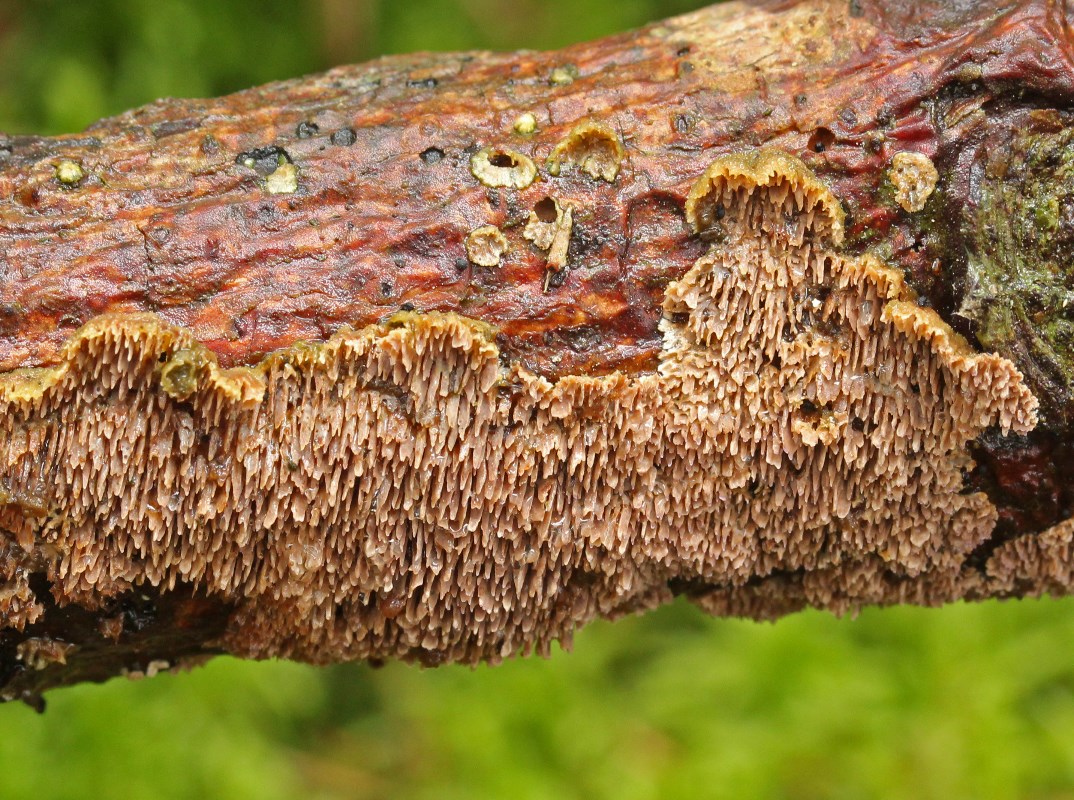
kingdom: Fungi
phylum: Basidiomycota
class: Agaricomycetes
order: Hymenochaetales
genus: Trichaptum
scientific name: Trichaptum fuscoviolaceum
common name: tandet violporesvamp
